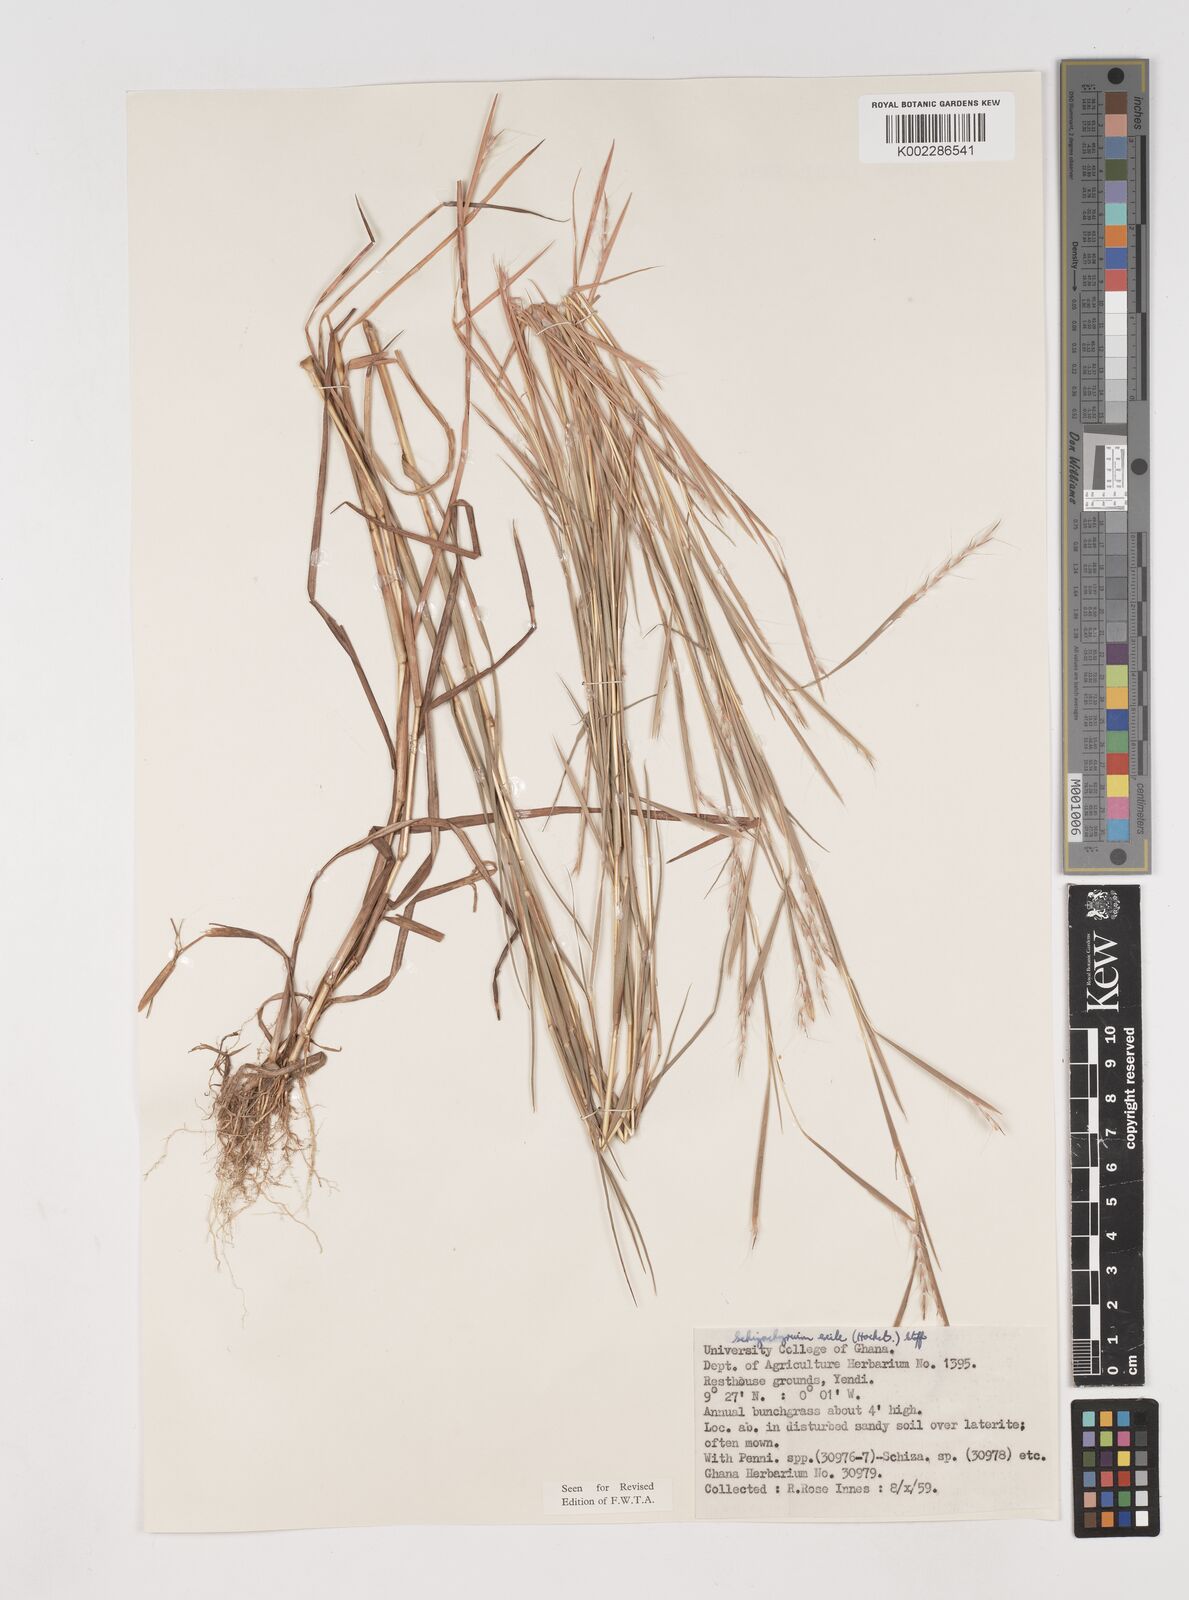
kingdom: Plantae
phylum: Tracheophyta
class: Liliopsida
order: Poales
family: Poaceae
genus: Schizachyrium
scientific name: Schizachyrium exile
